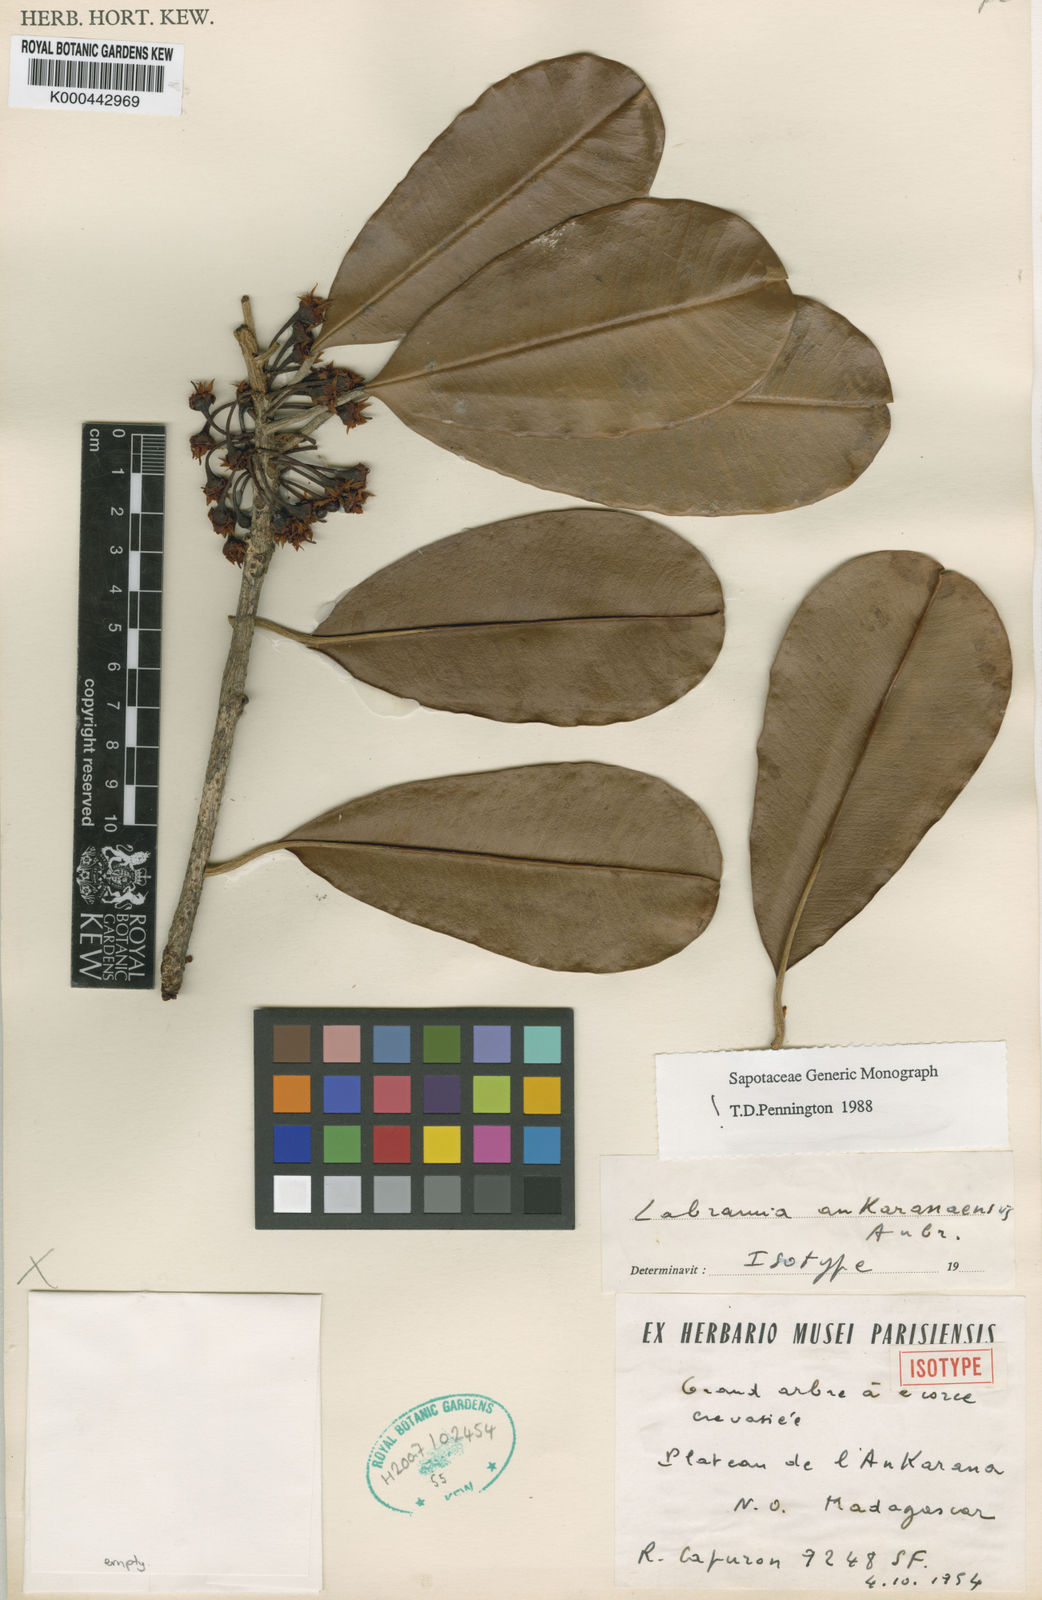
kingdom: Plantae
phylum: Tracheophyta
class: Magnoliopsida
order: Ericales
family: Sapotaceae
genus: Labramia
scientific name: Labramia ankaranaensis
